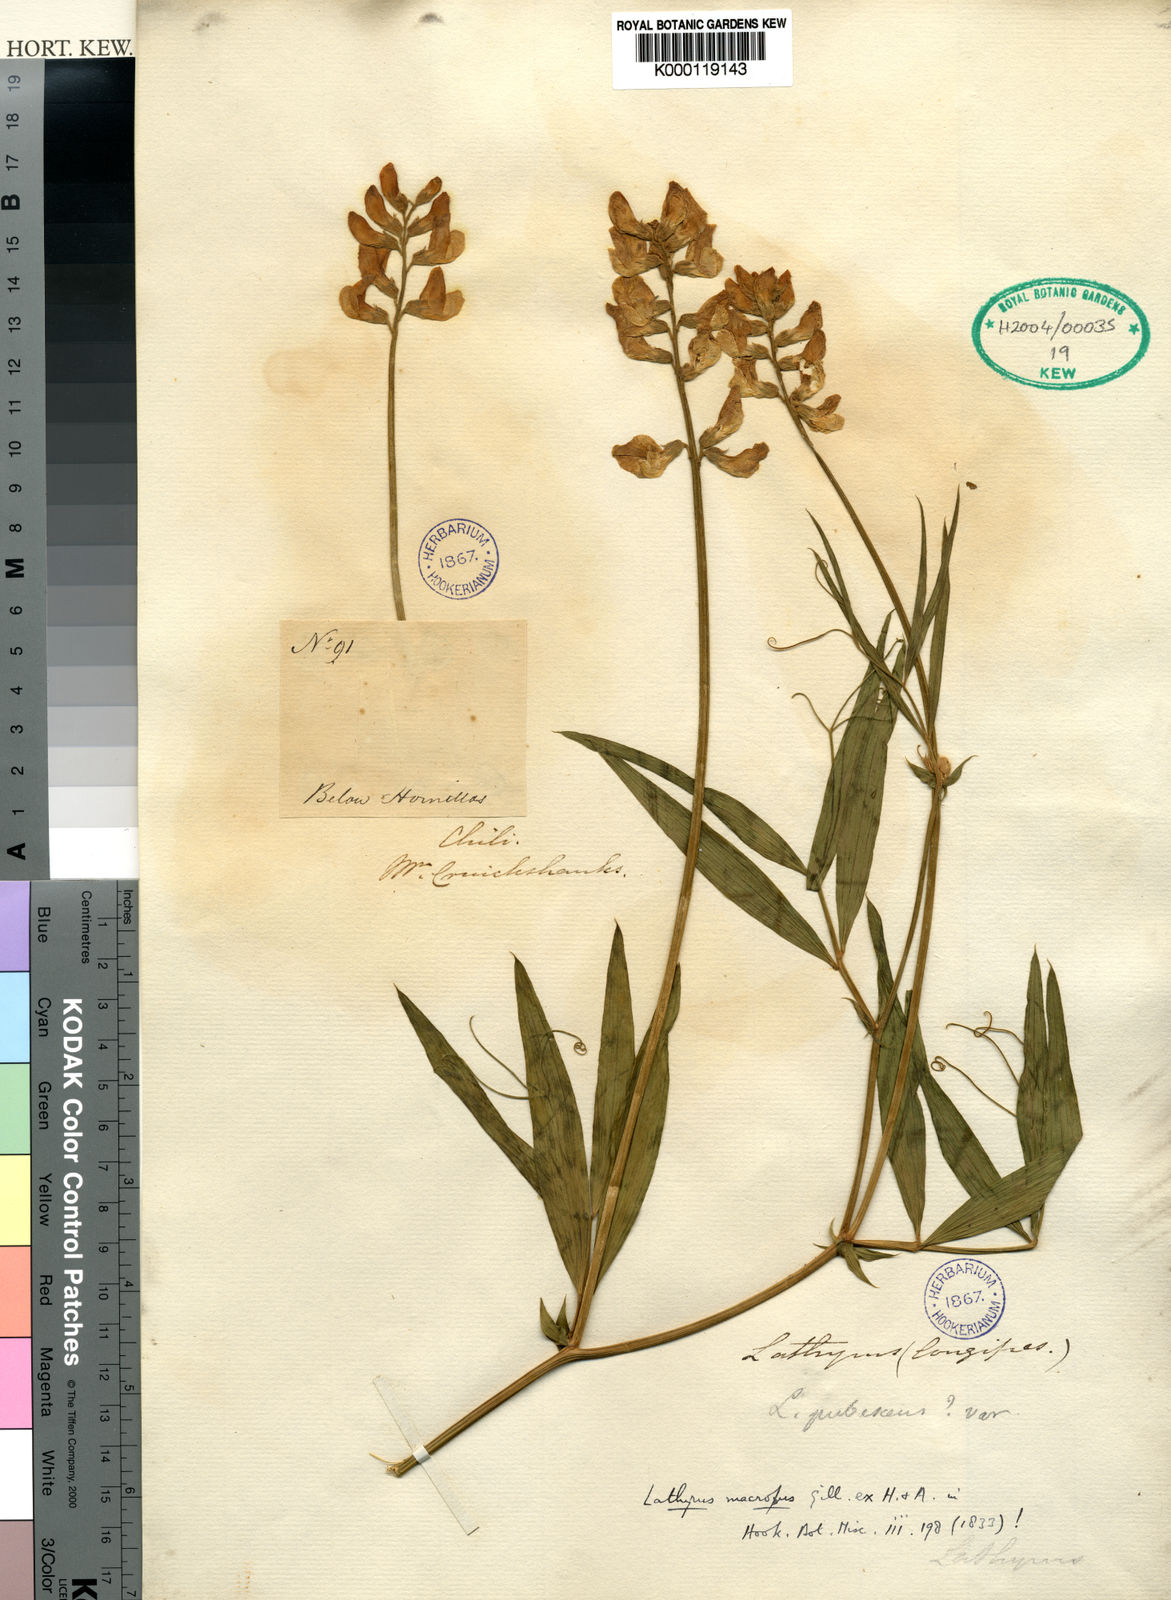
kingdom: Plantae
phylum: Tracheophyta
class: Magnoliopsida
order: Fabales
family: Fabaceae
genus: Lathyrus
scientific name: Lathyrus
